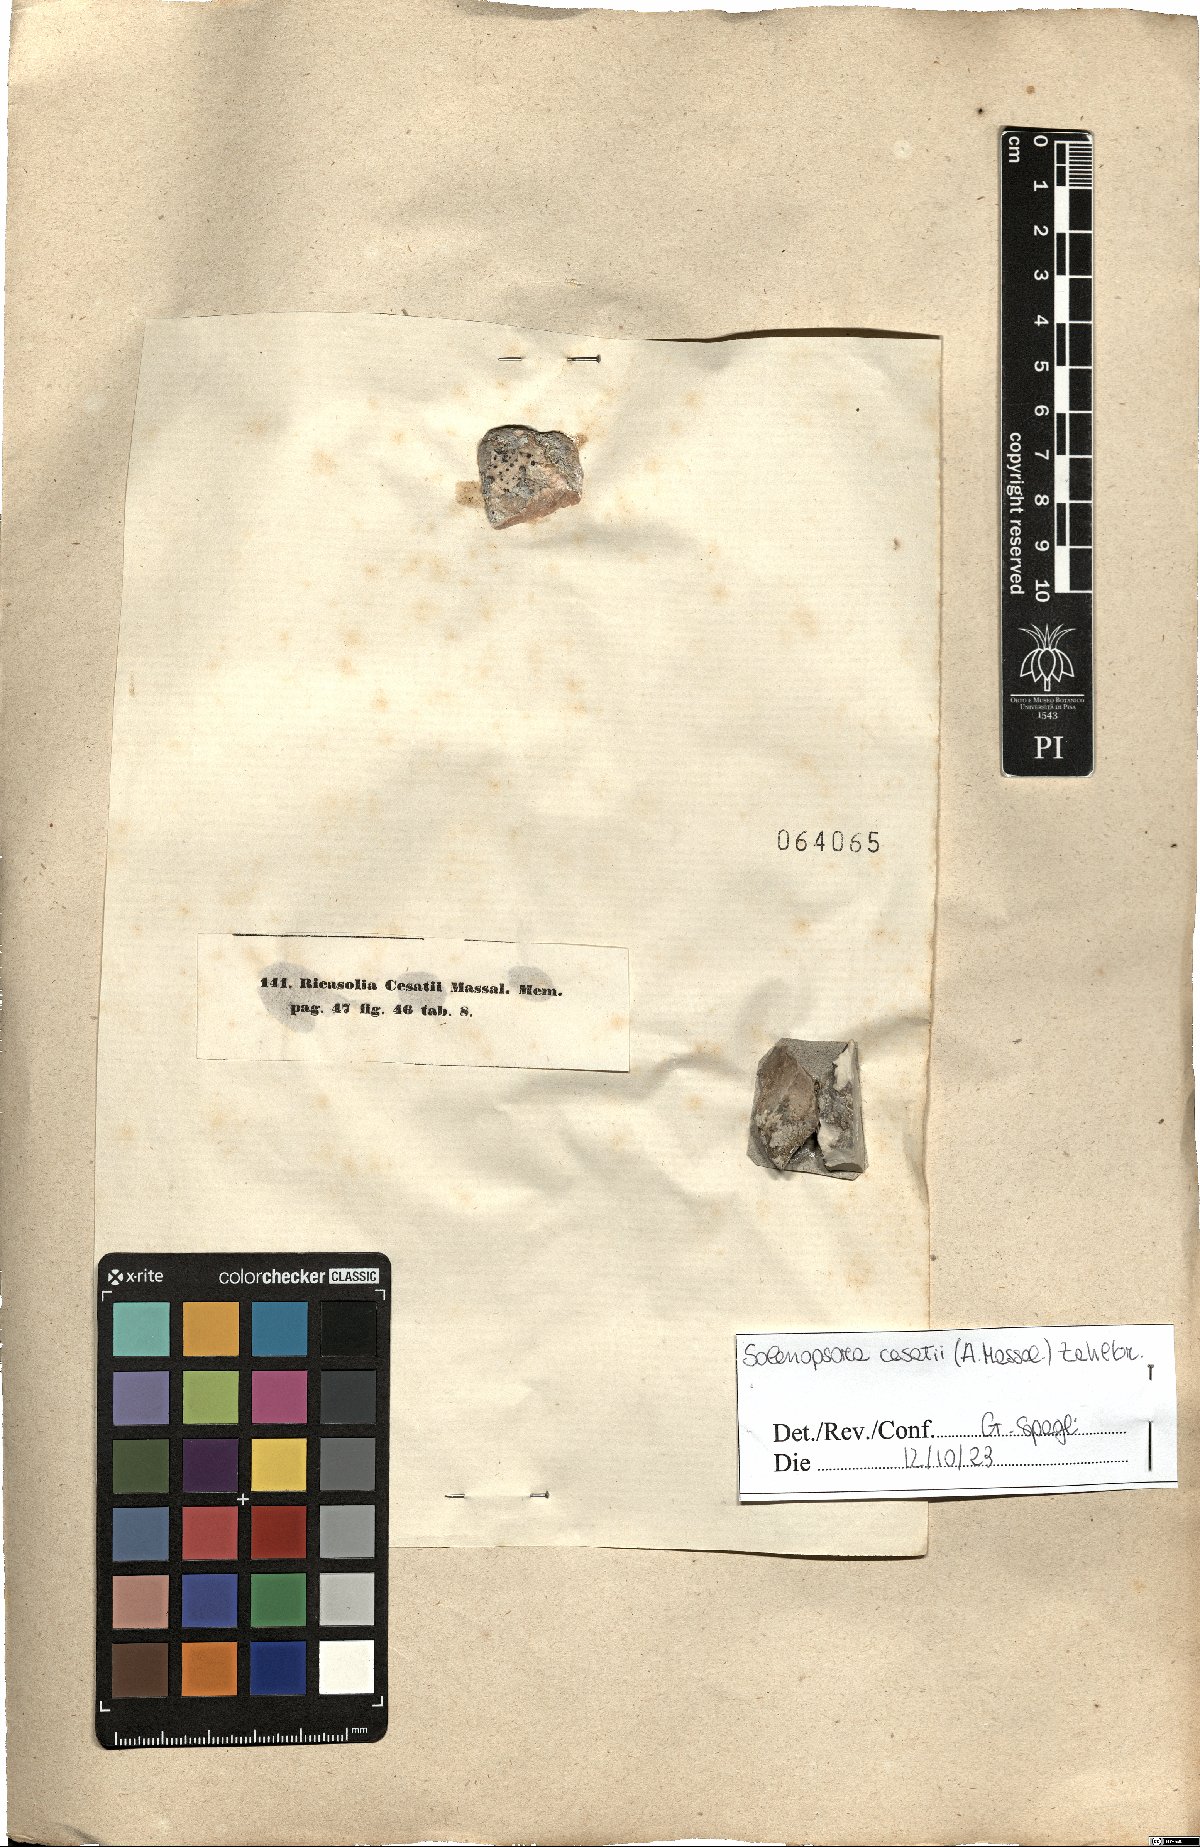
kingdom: Fungi
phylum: Ascomycota
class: Lecanoromycetes
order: Lecanorales
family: Catillariaceae
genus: Solenopsora
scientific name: Solenopsora cesatii
